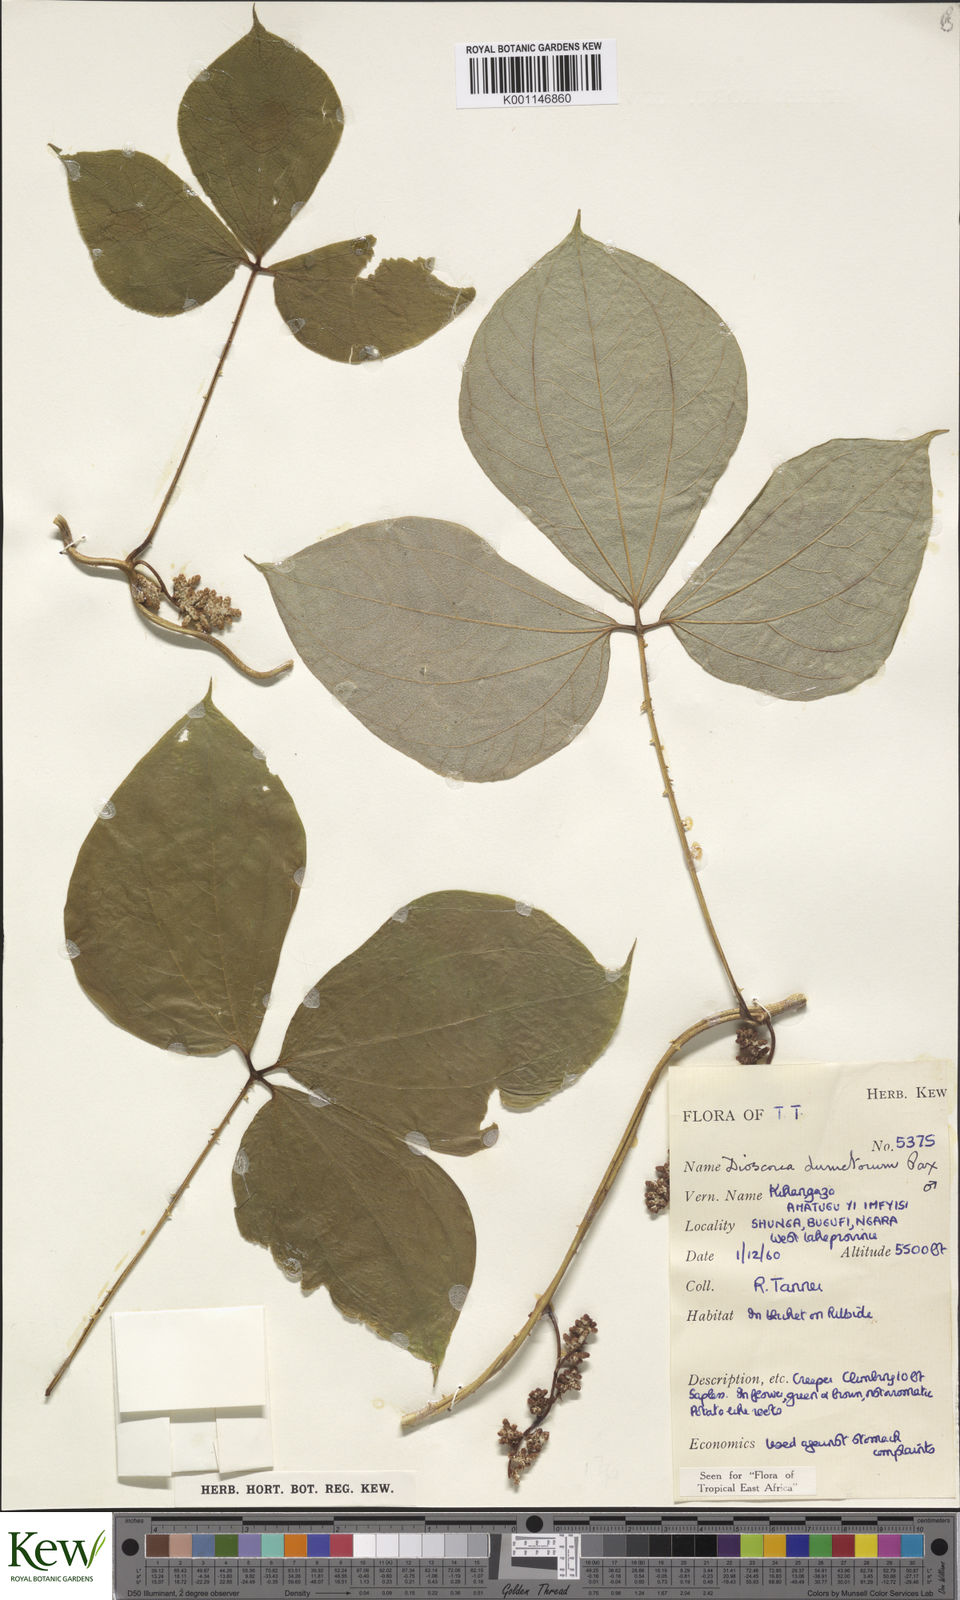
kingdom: Plantae
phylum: Tracheophyta
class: Liliopsida
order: Dioscoreales
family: Dioscoreaceae
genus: Dioscorea
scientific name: Dioscorea dumetorum
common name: African bitter yam
